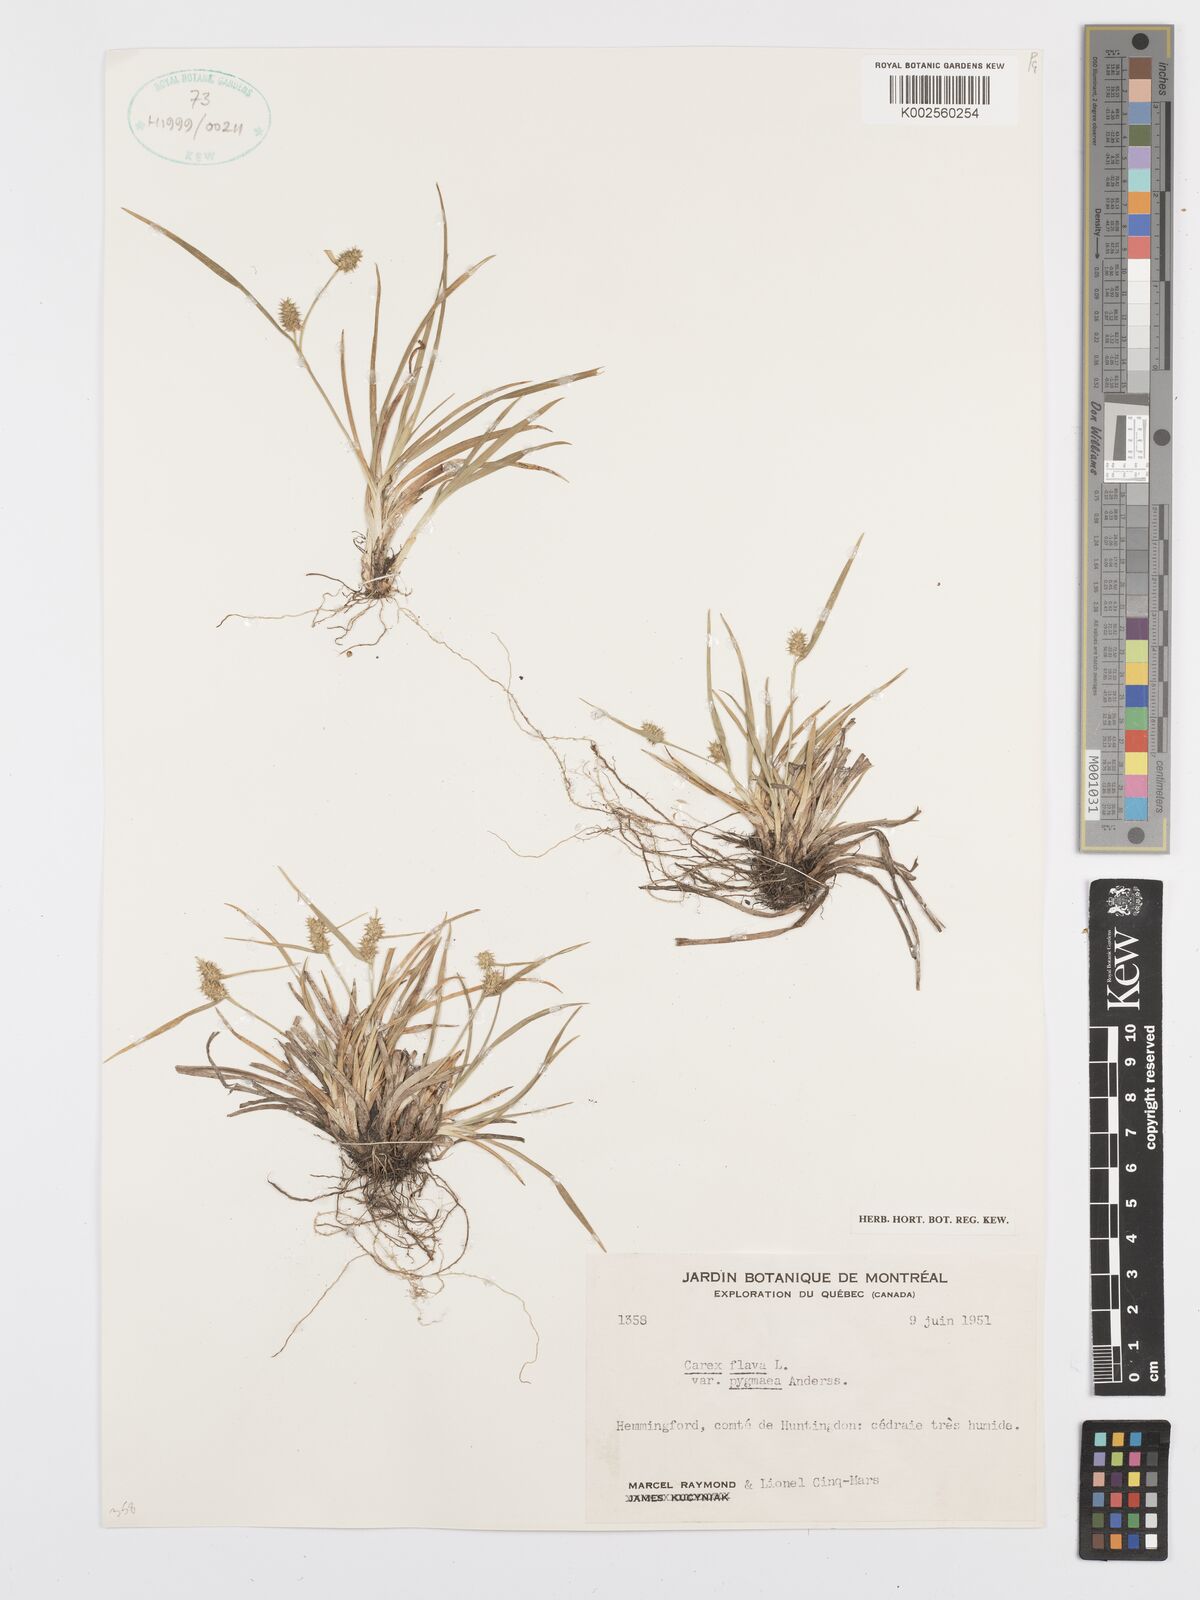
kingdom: Plantae
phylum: Tracheophyta
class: Liliopsida
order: Poales
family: Cyperaceae
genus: Carex
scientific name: Carex flava
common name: Large yellow-sedge
